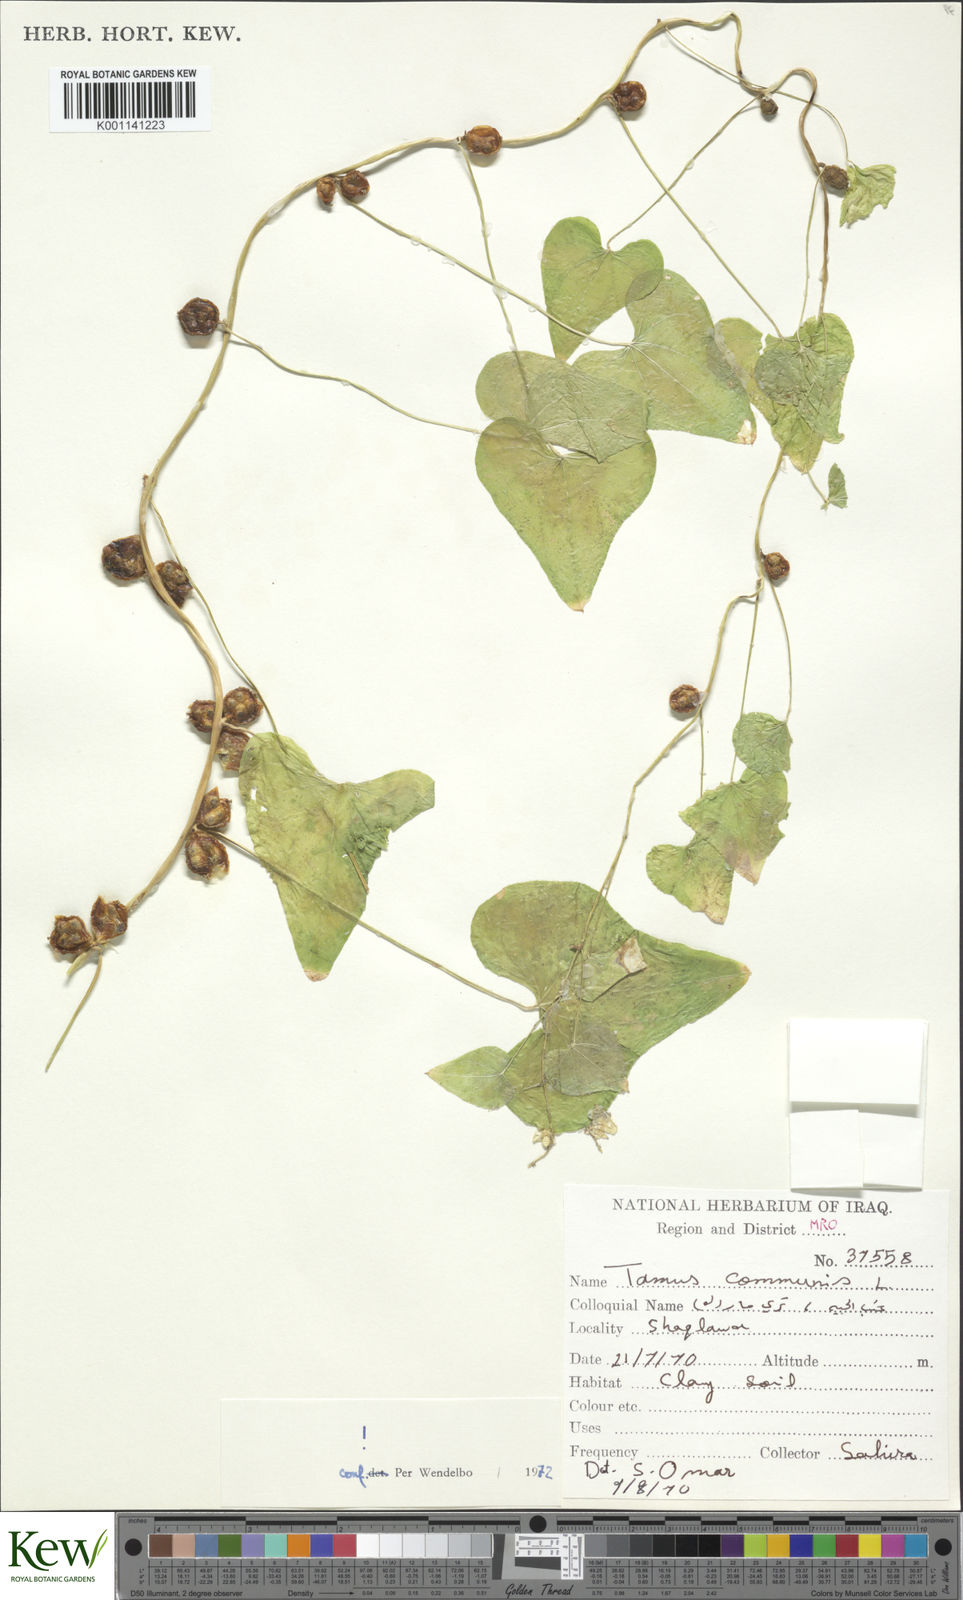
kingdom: Plantae
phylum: Tracheophyta
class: Liliopsida
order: Dioscoreales
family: Dioscoreaceae
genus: Dioscorea
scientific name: Dioscorea communis
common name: Black-bindweed
